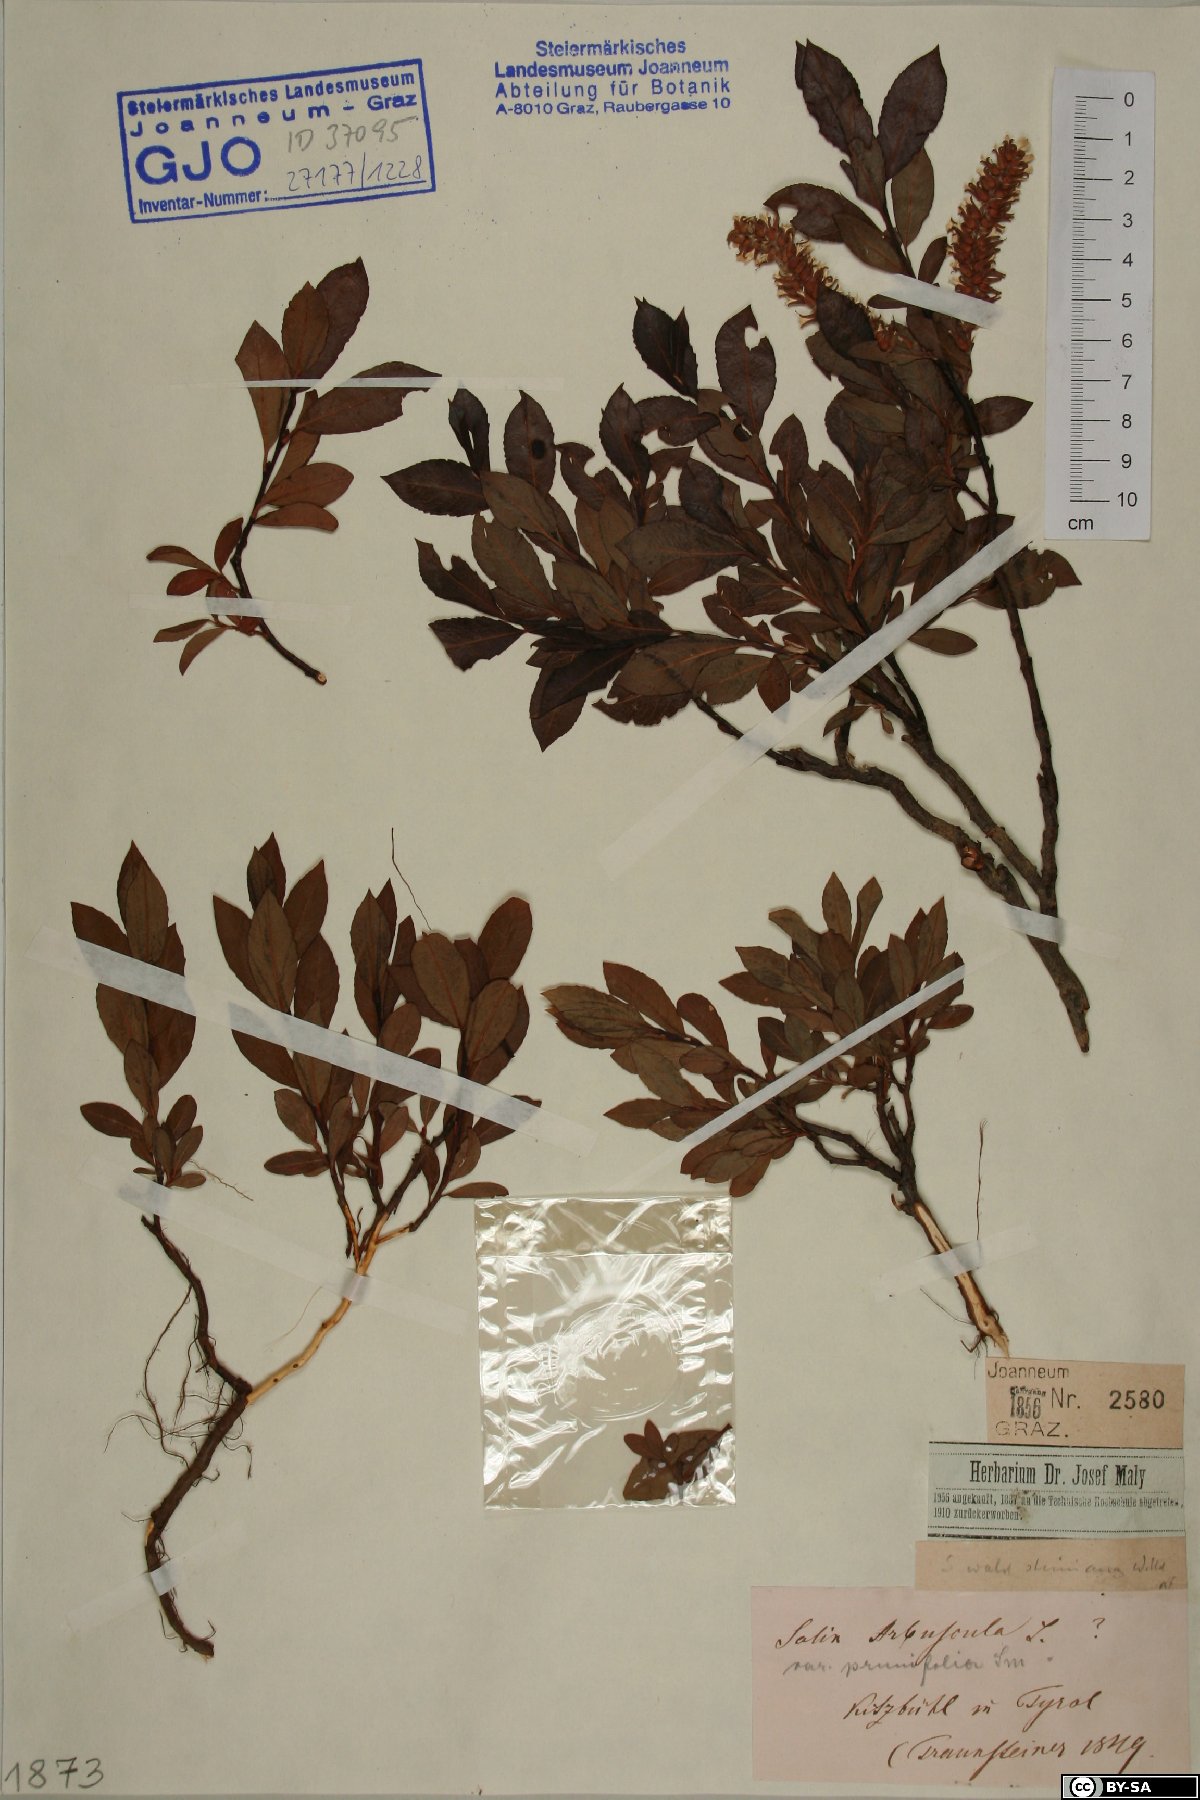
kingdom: Plantae
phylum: Tracheophyta
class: Magnoliopsida
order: Malpighiales
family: Salicaceae
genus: Salix
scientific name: Salix waldsteiniana
